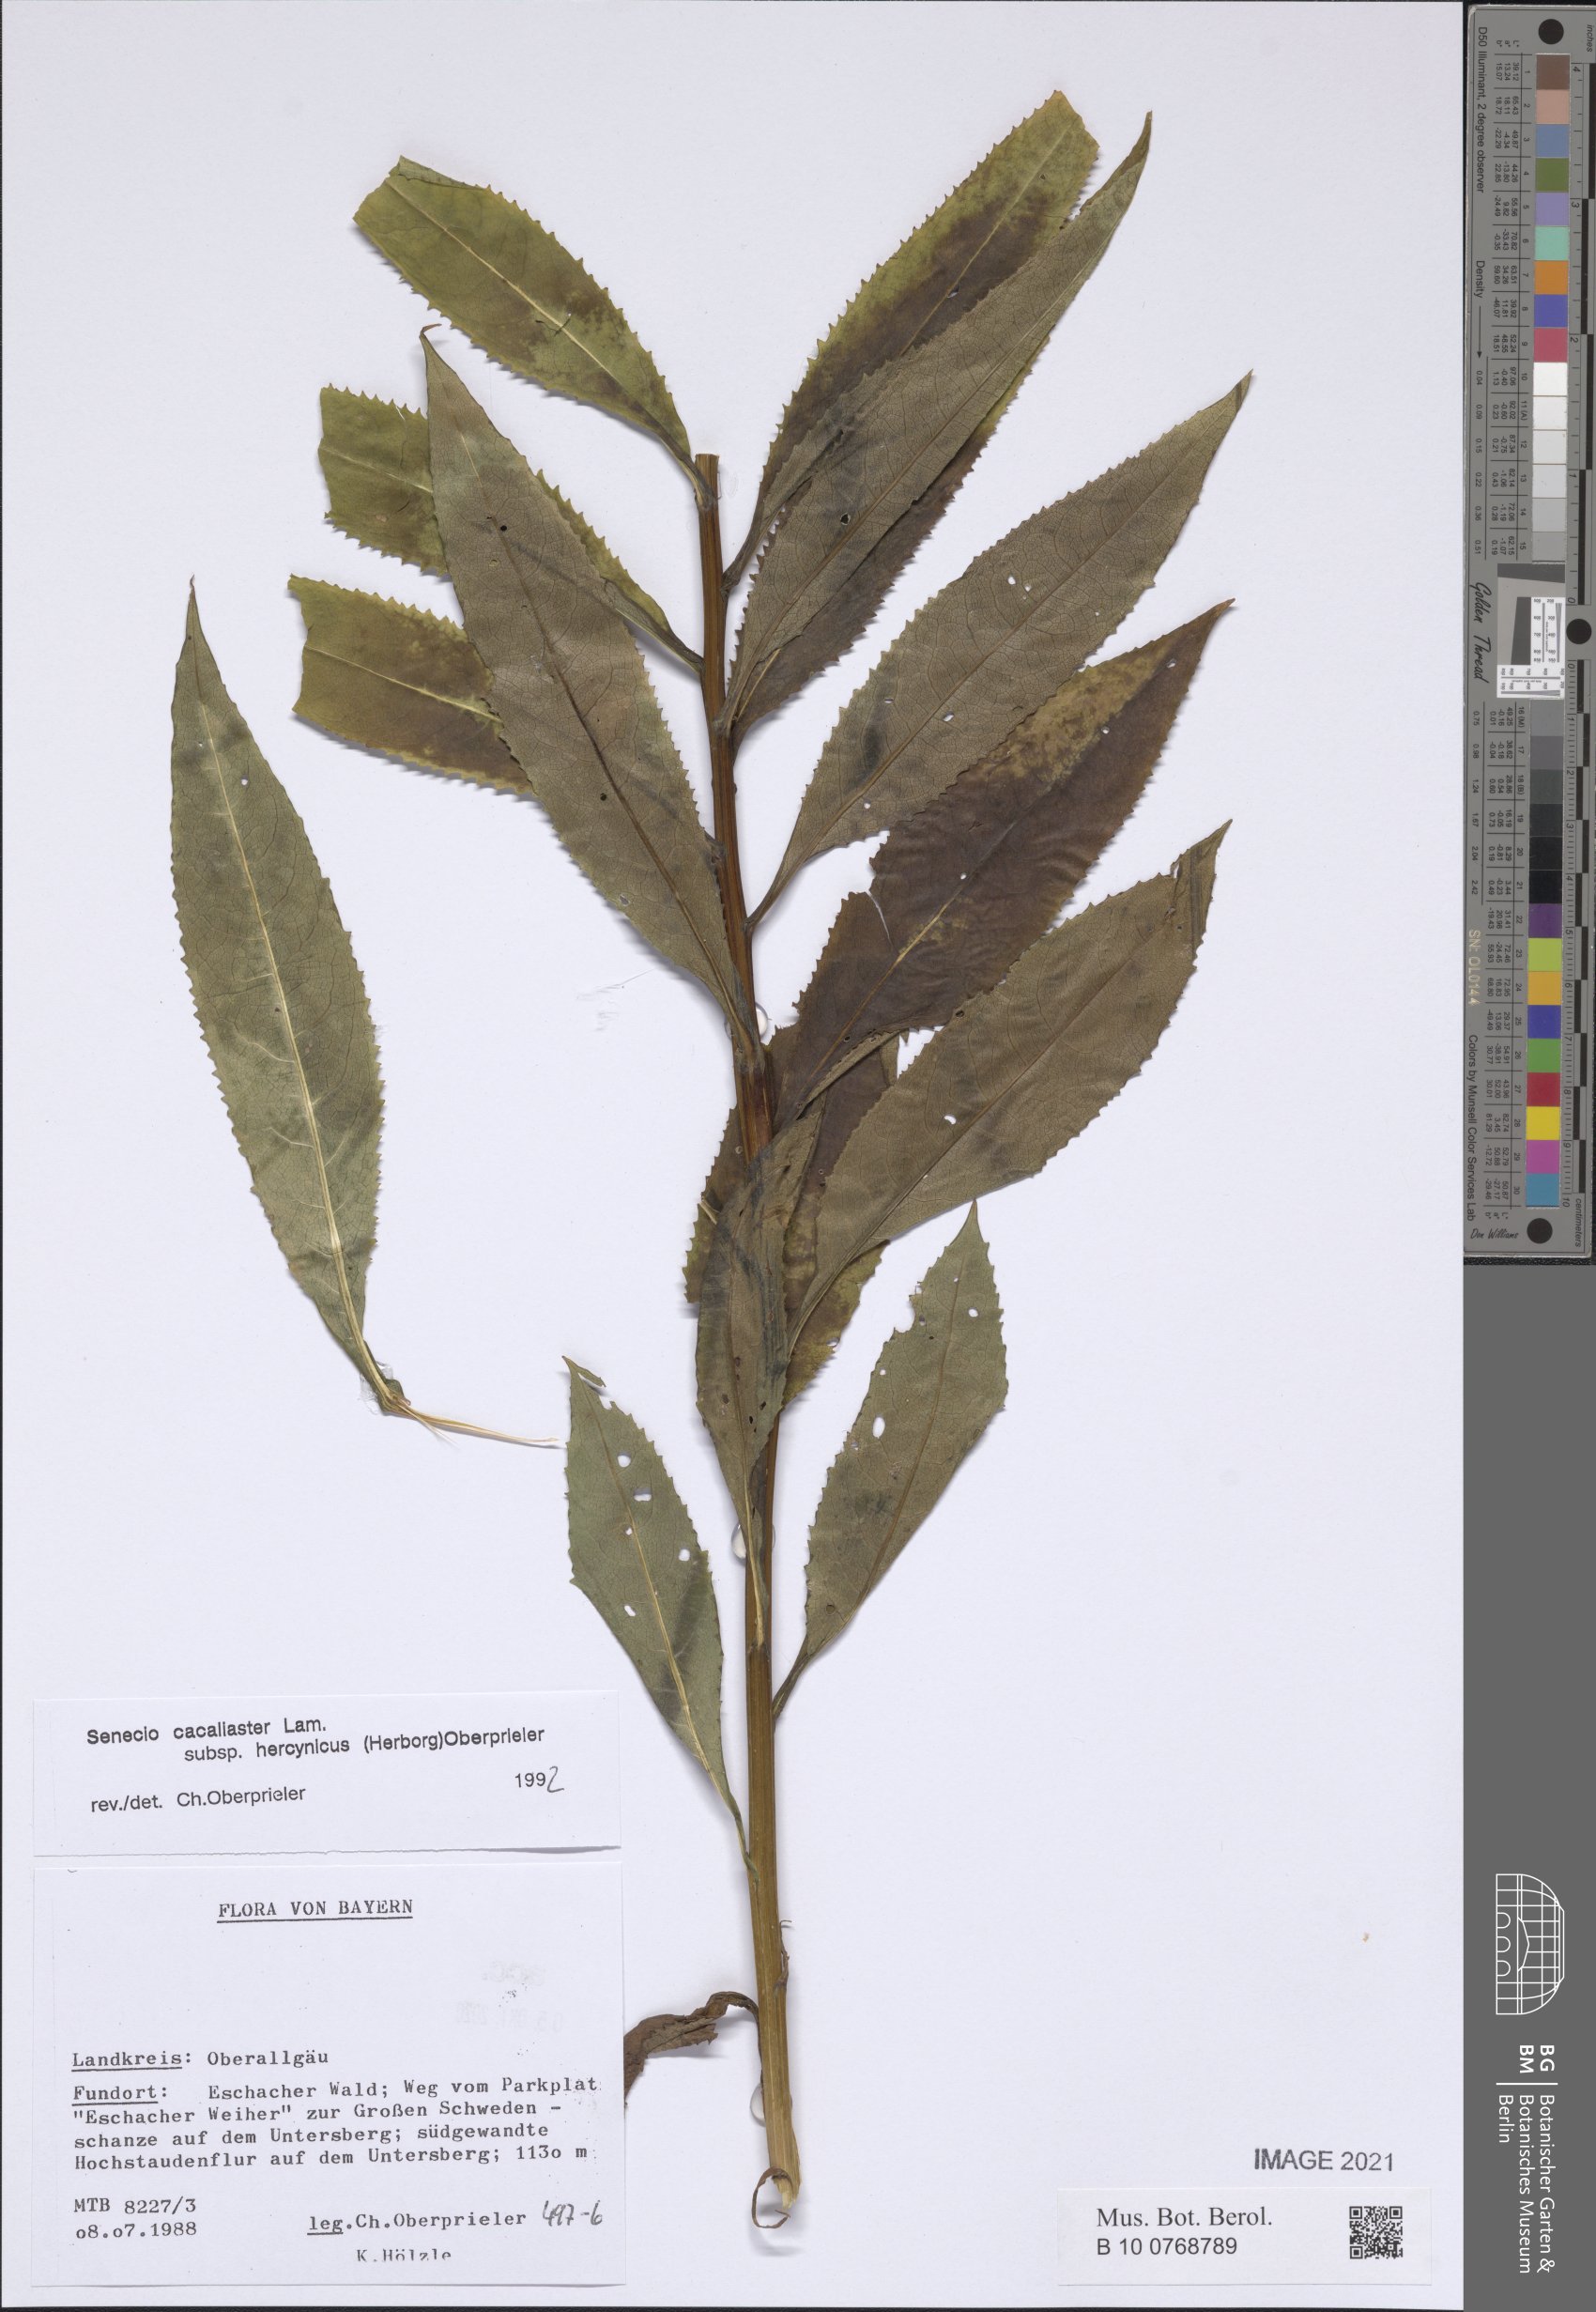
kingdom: Plantae
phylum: Tracheophyta
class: Magnoliopsida
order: Asterales
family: Asteraceae
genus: Senecio
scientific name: Senecio hercynicus
